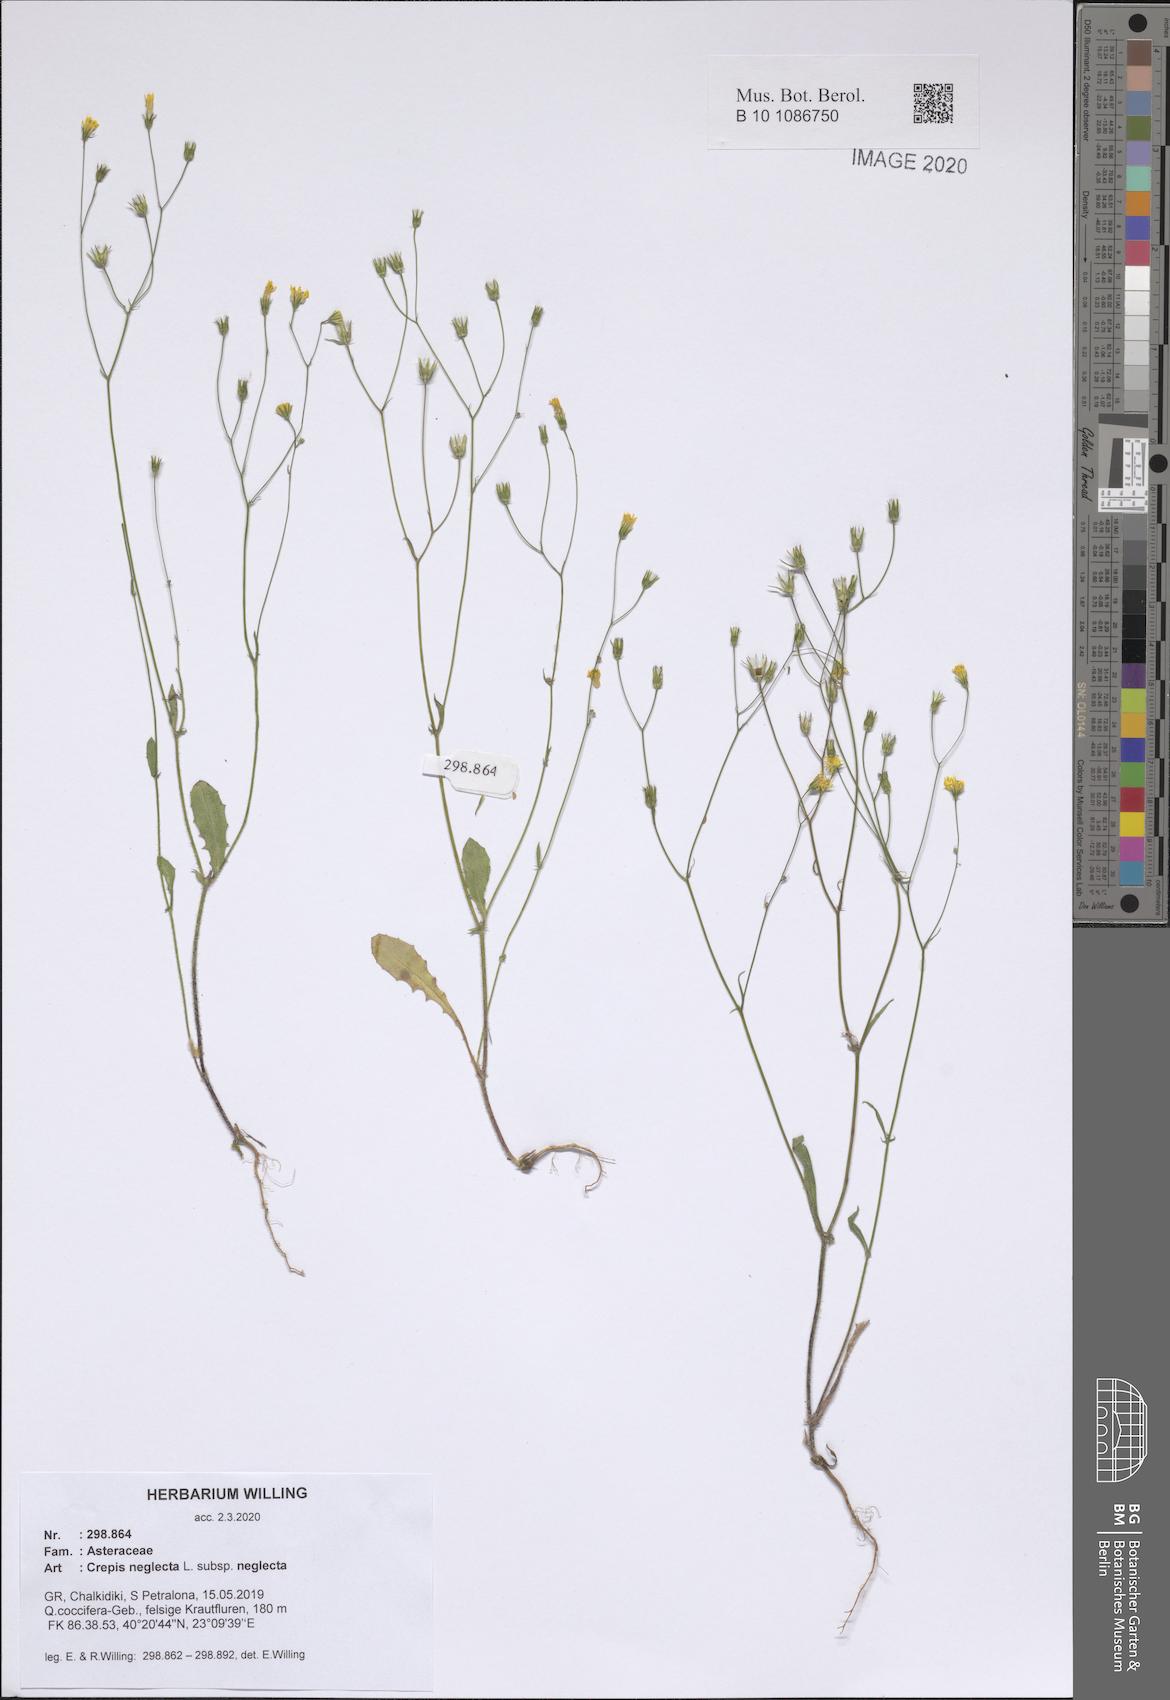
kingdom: Plantae
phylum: Tracheophyta
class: Magnoliopsida
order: Asterales
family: Asteraceae
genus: Crepis
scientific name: Crepis neglecta
